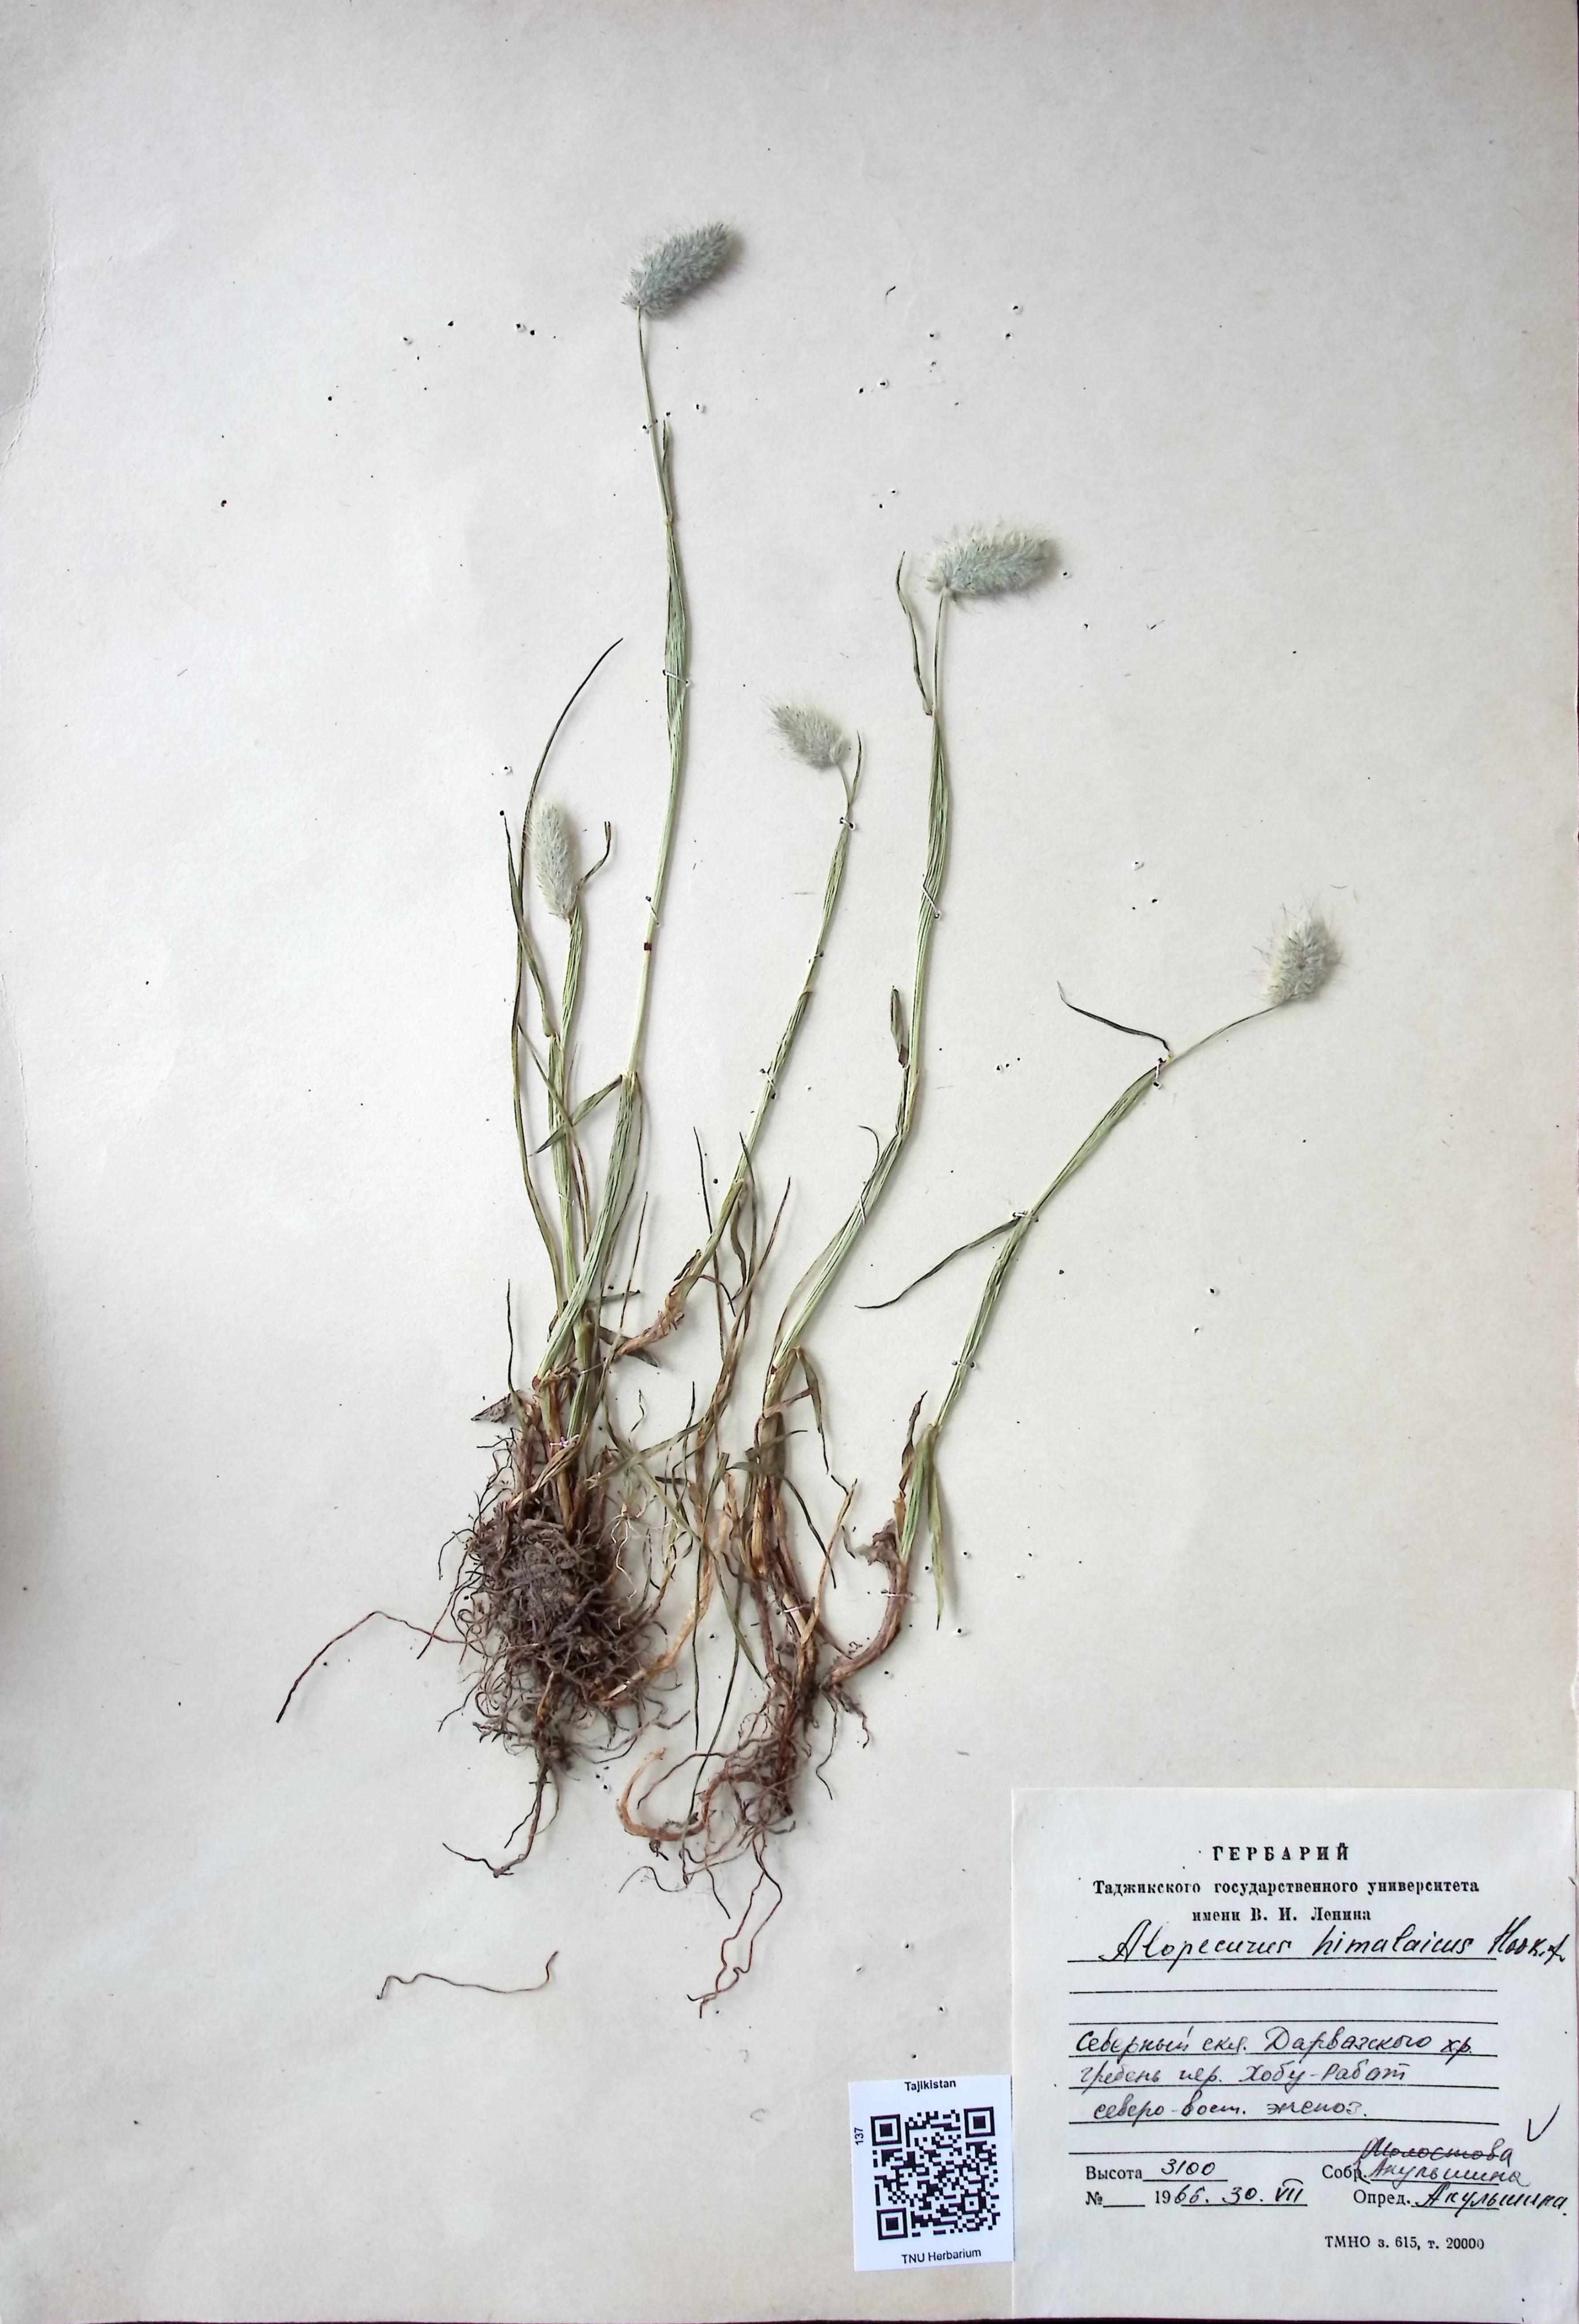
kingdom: Plantae
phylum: Tracheophyta
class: Liliopsida
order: Poales
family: Poaceae
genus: Alopecurus
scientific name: Alopecurus himalaicus
